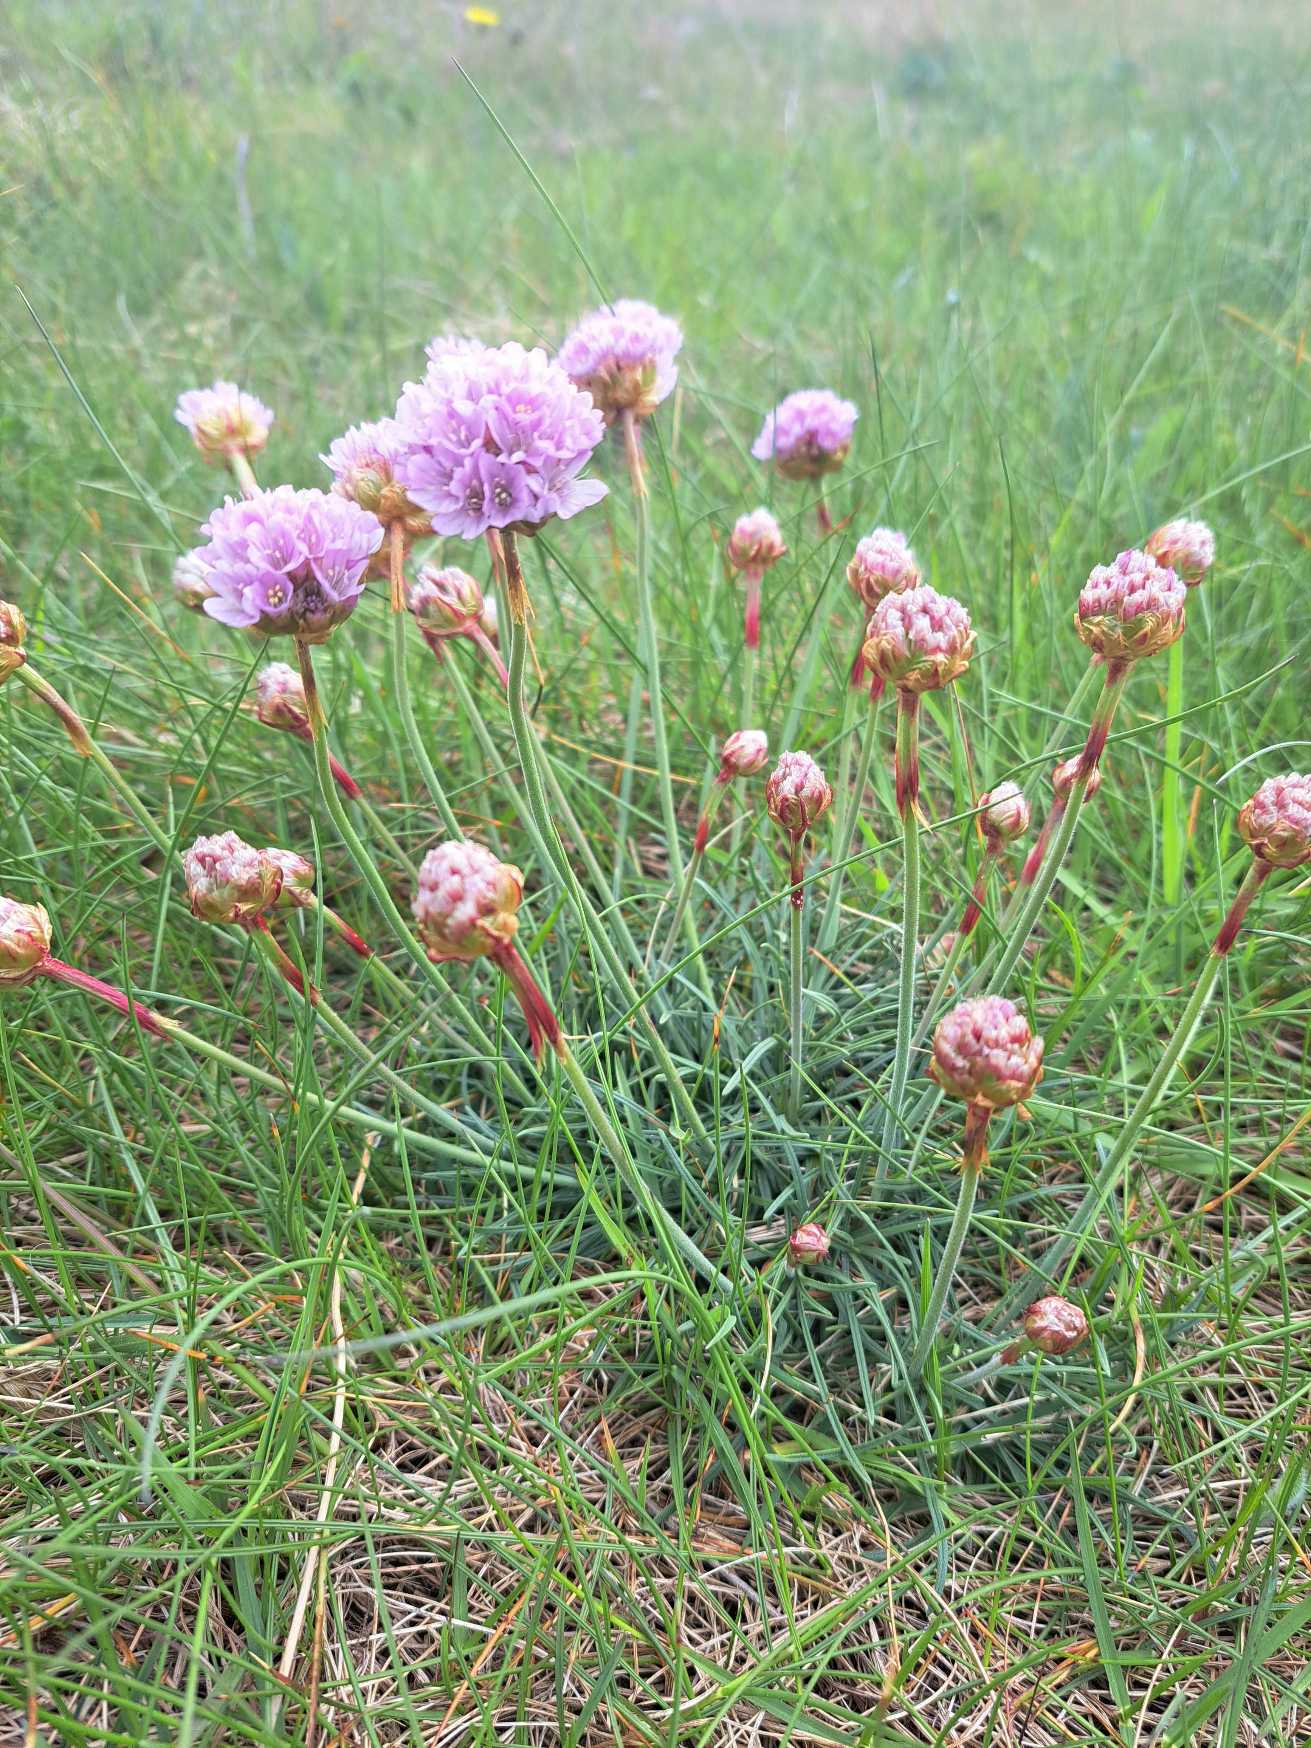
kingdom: Plantae
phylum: Tracheophyta
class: Magnoliopsida
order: Caryophyllales
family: Plumbaginaceae
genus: Armeria
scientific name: Armeria maritima
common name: Engelskgræs
